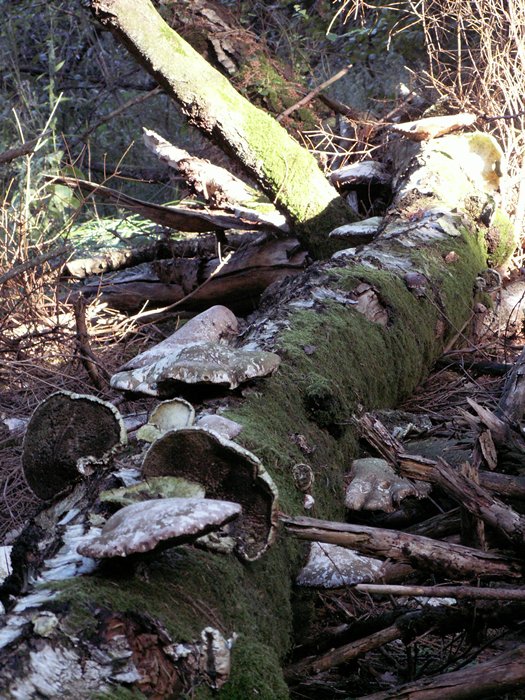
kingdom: Fungi
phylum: Basidiomycota
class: Agaricomycetes
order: Polyporales
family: Fomitopsidaceae
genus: Fomitopsis
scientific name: Fomitopsis betulina
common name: birkeporesvamp
